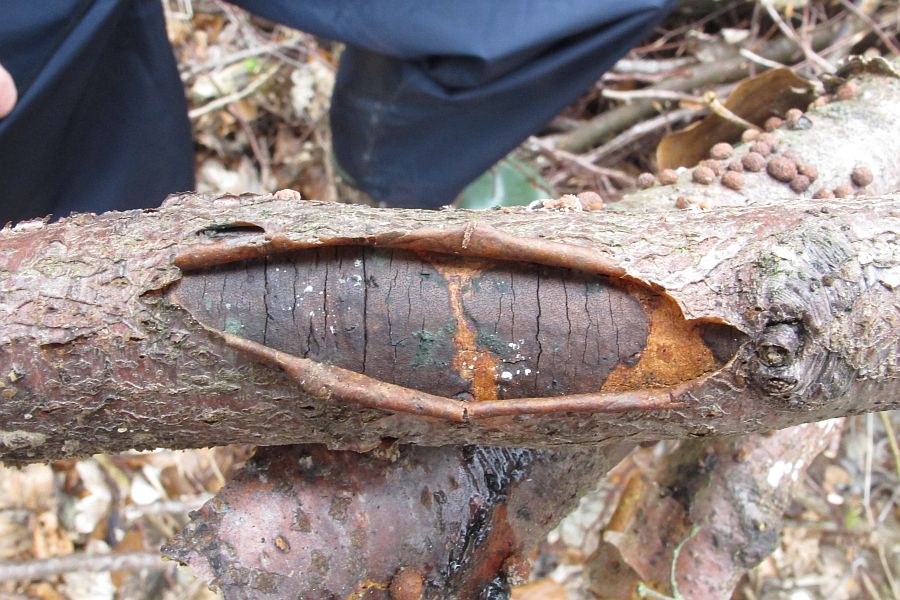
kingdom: Fungi
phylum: Ascomycota
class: Sordariomycetes
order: Xylariales
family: Diatrypaceae
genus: Diatrype
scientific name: Diatrype decorticata
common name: barksprænger-kulskorpe
